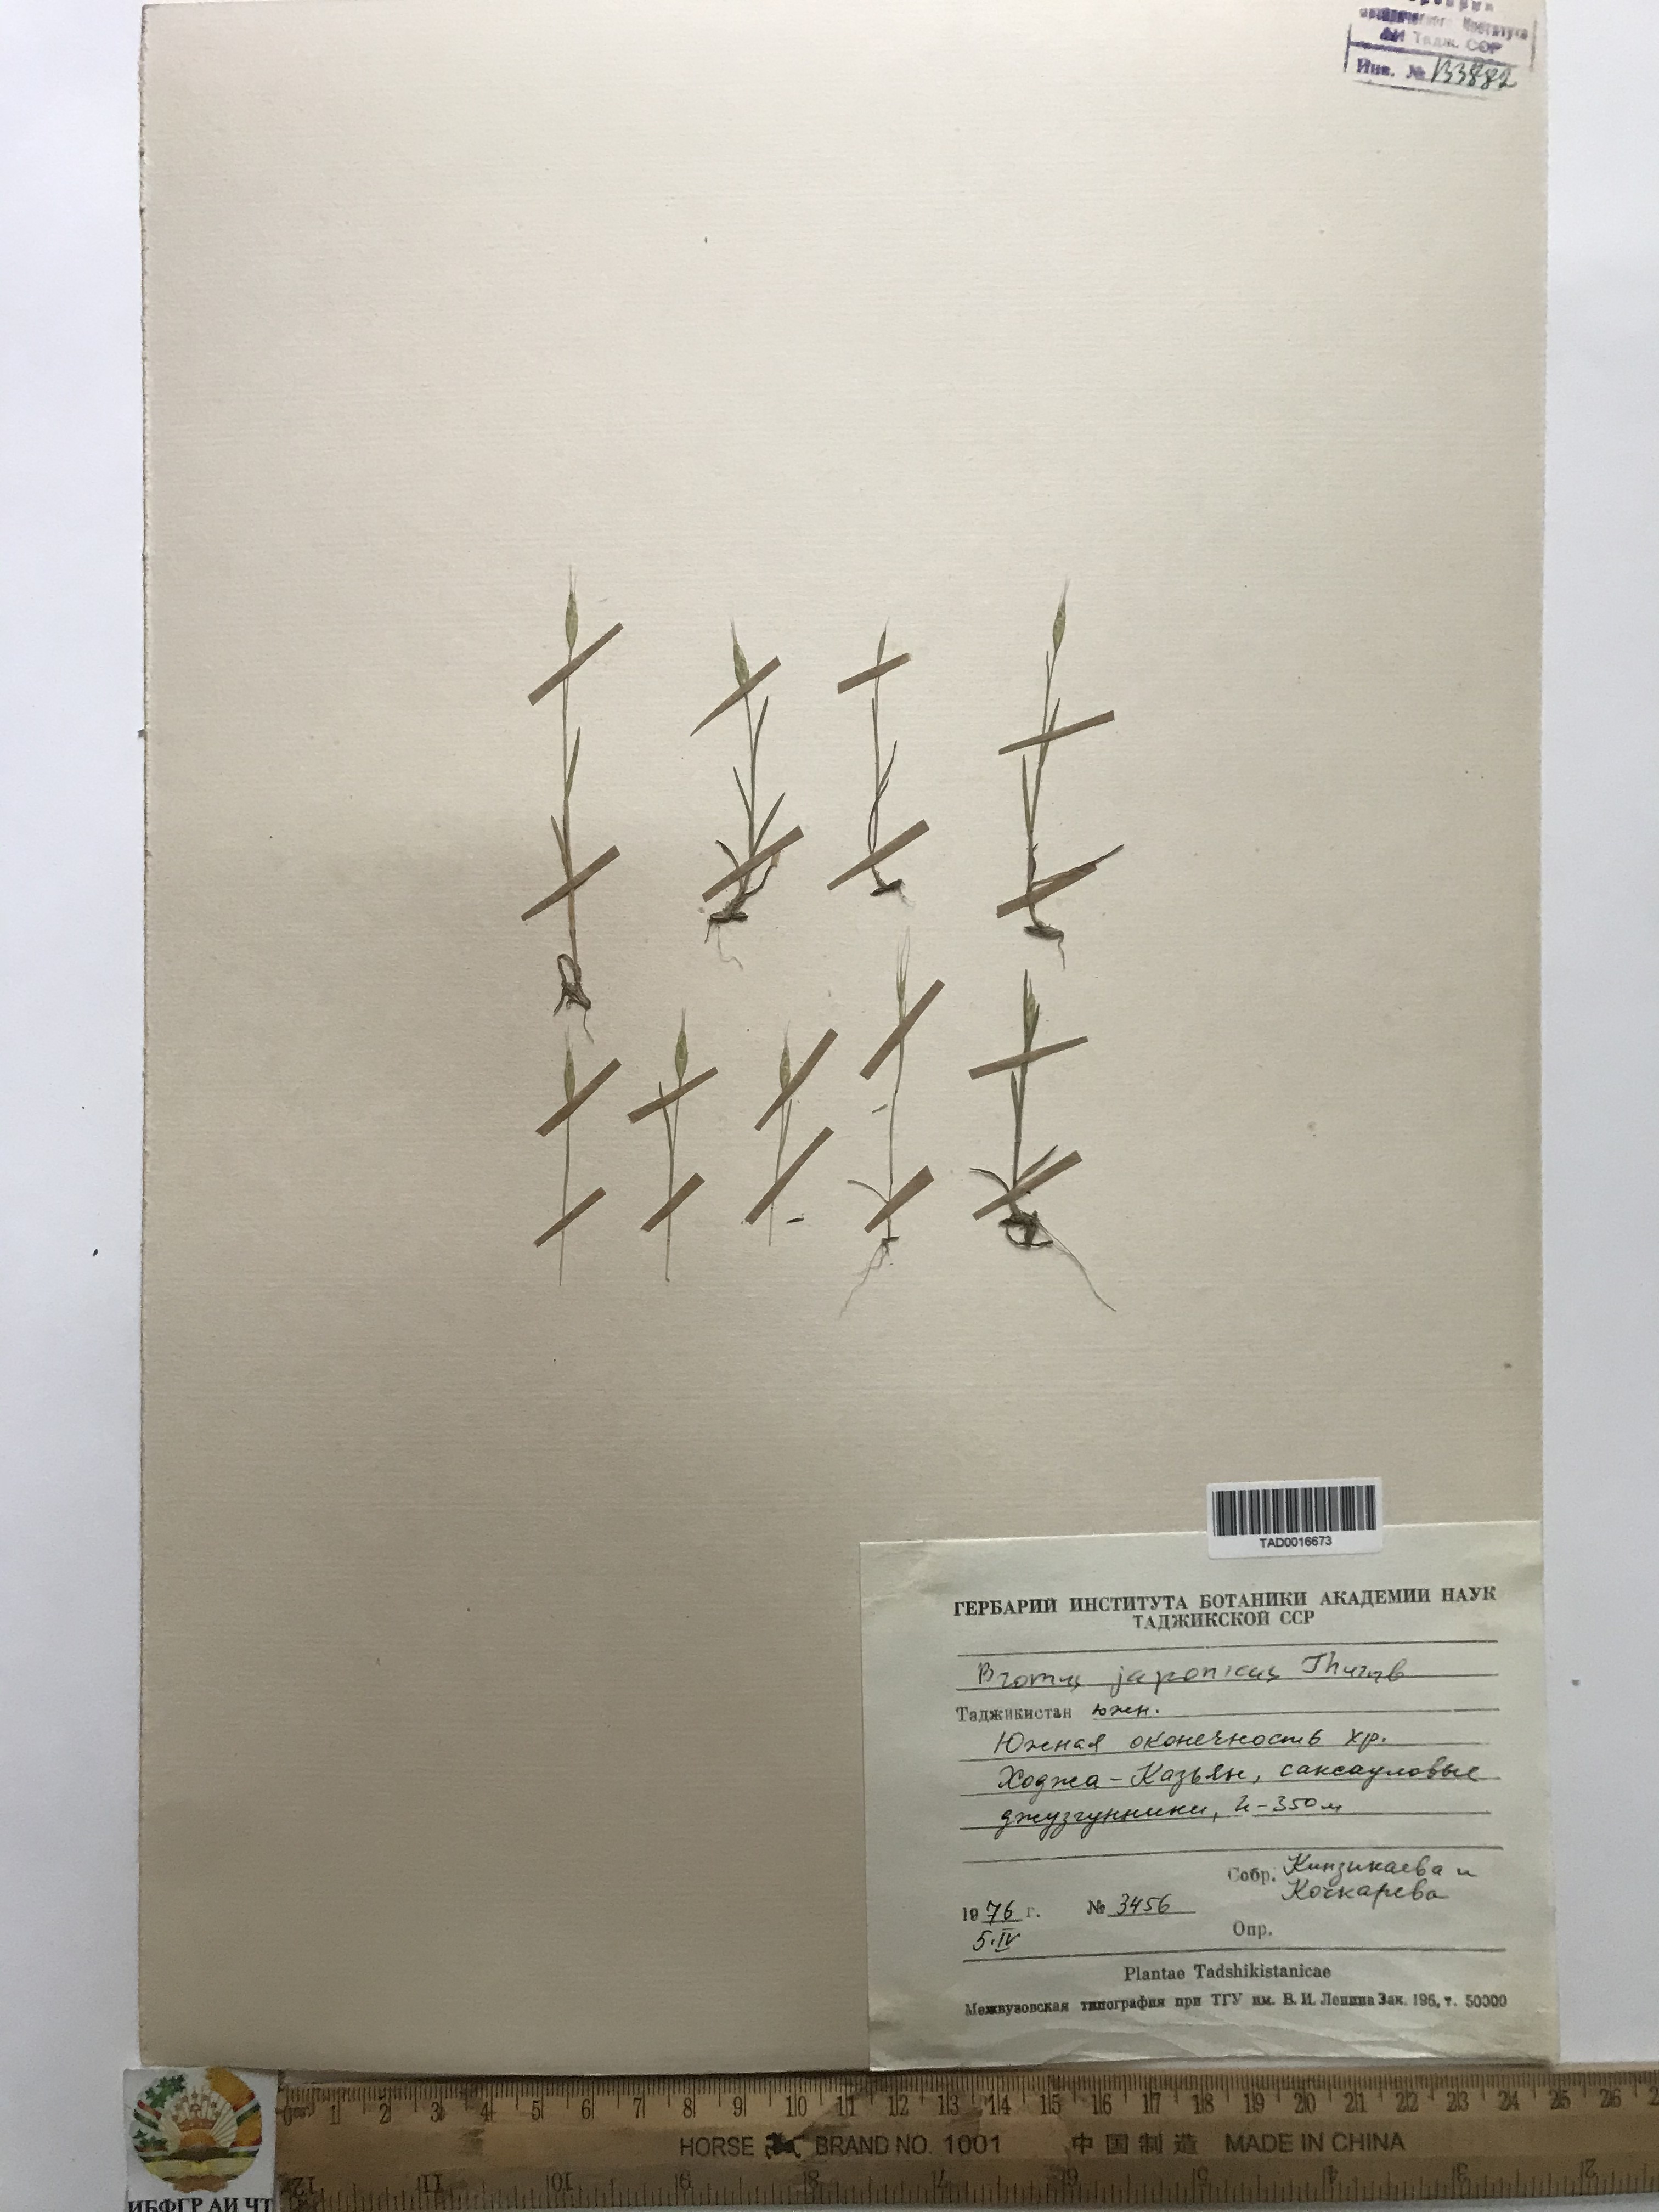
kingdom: Plantae
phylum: Tracheophyta
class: Liliopsida
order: Poales
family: Poaceae
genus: Bromus
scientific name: Bromus japonicus
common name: Japanese brome
